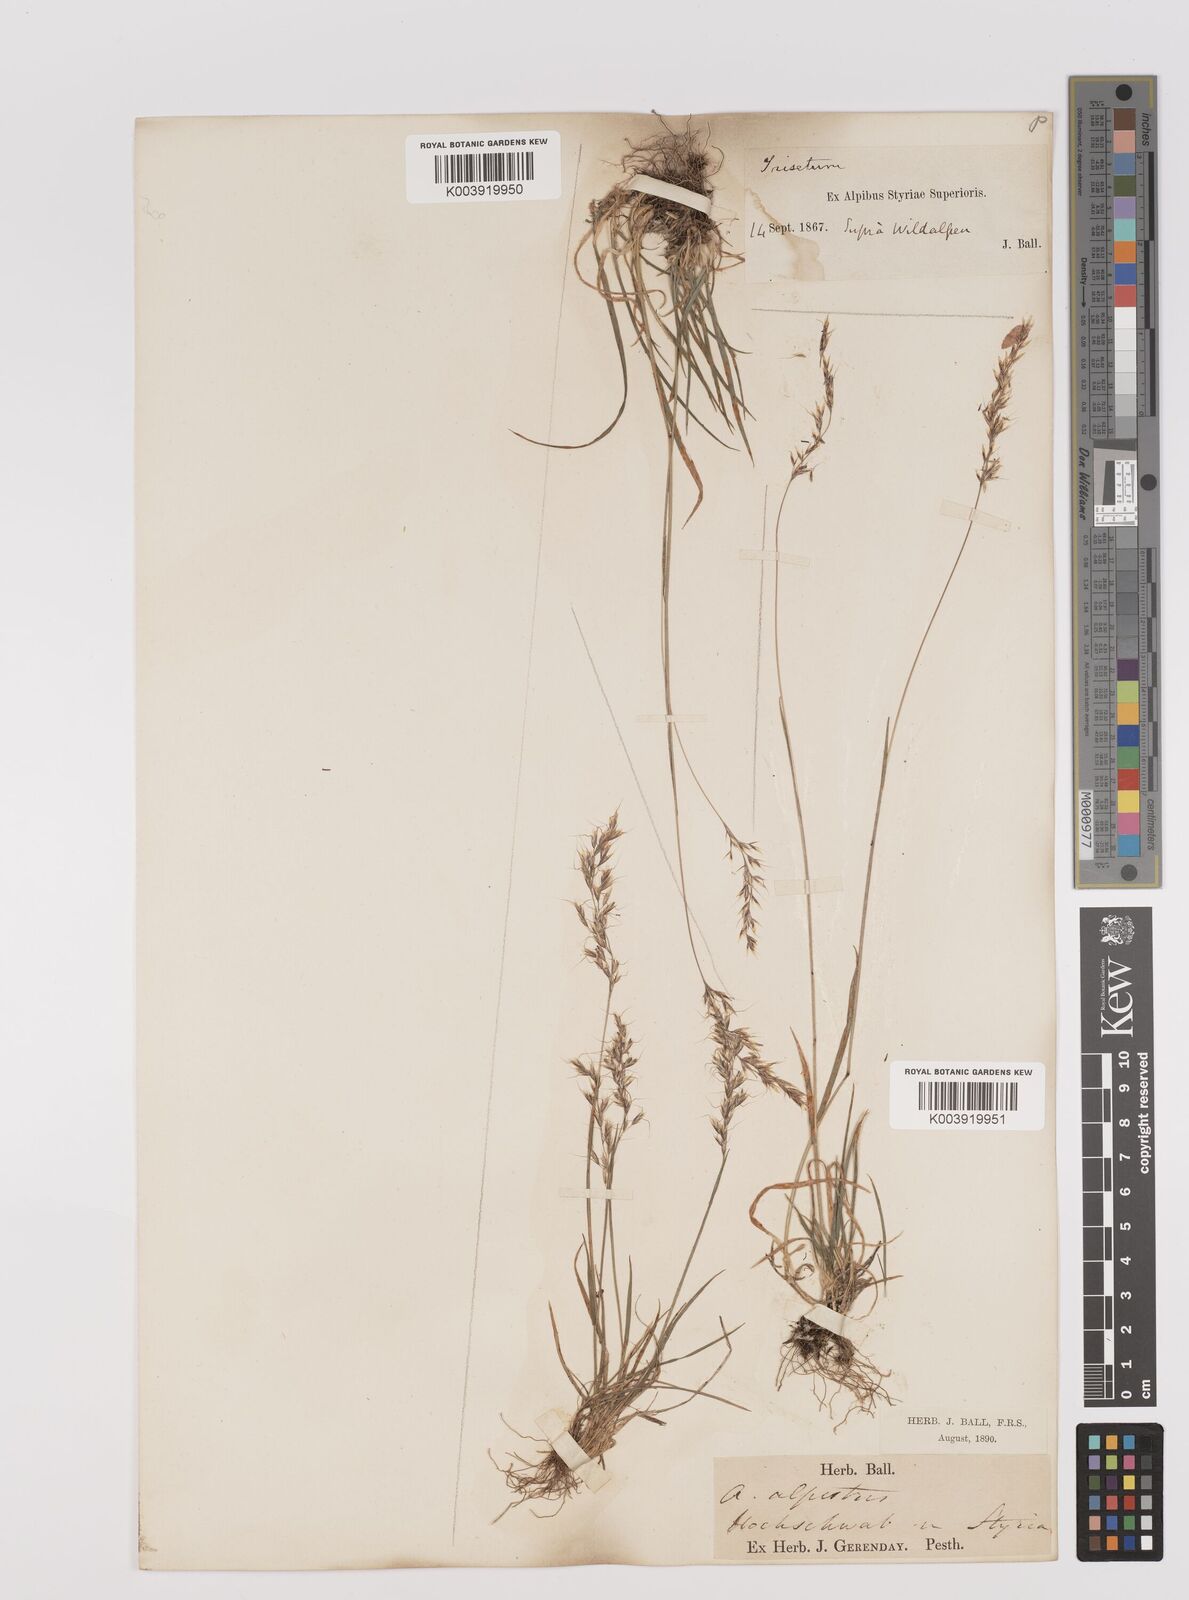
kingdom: Plantae
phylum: Tracheophyta
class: Liliopsida
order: Poales
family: Poaceae
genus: Trisetum
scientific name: Trisetum alpestre
